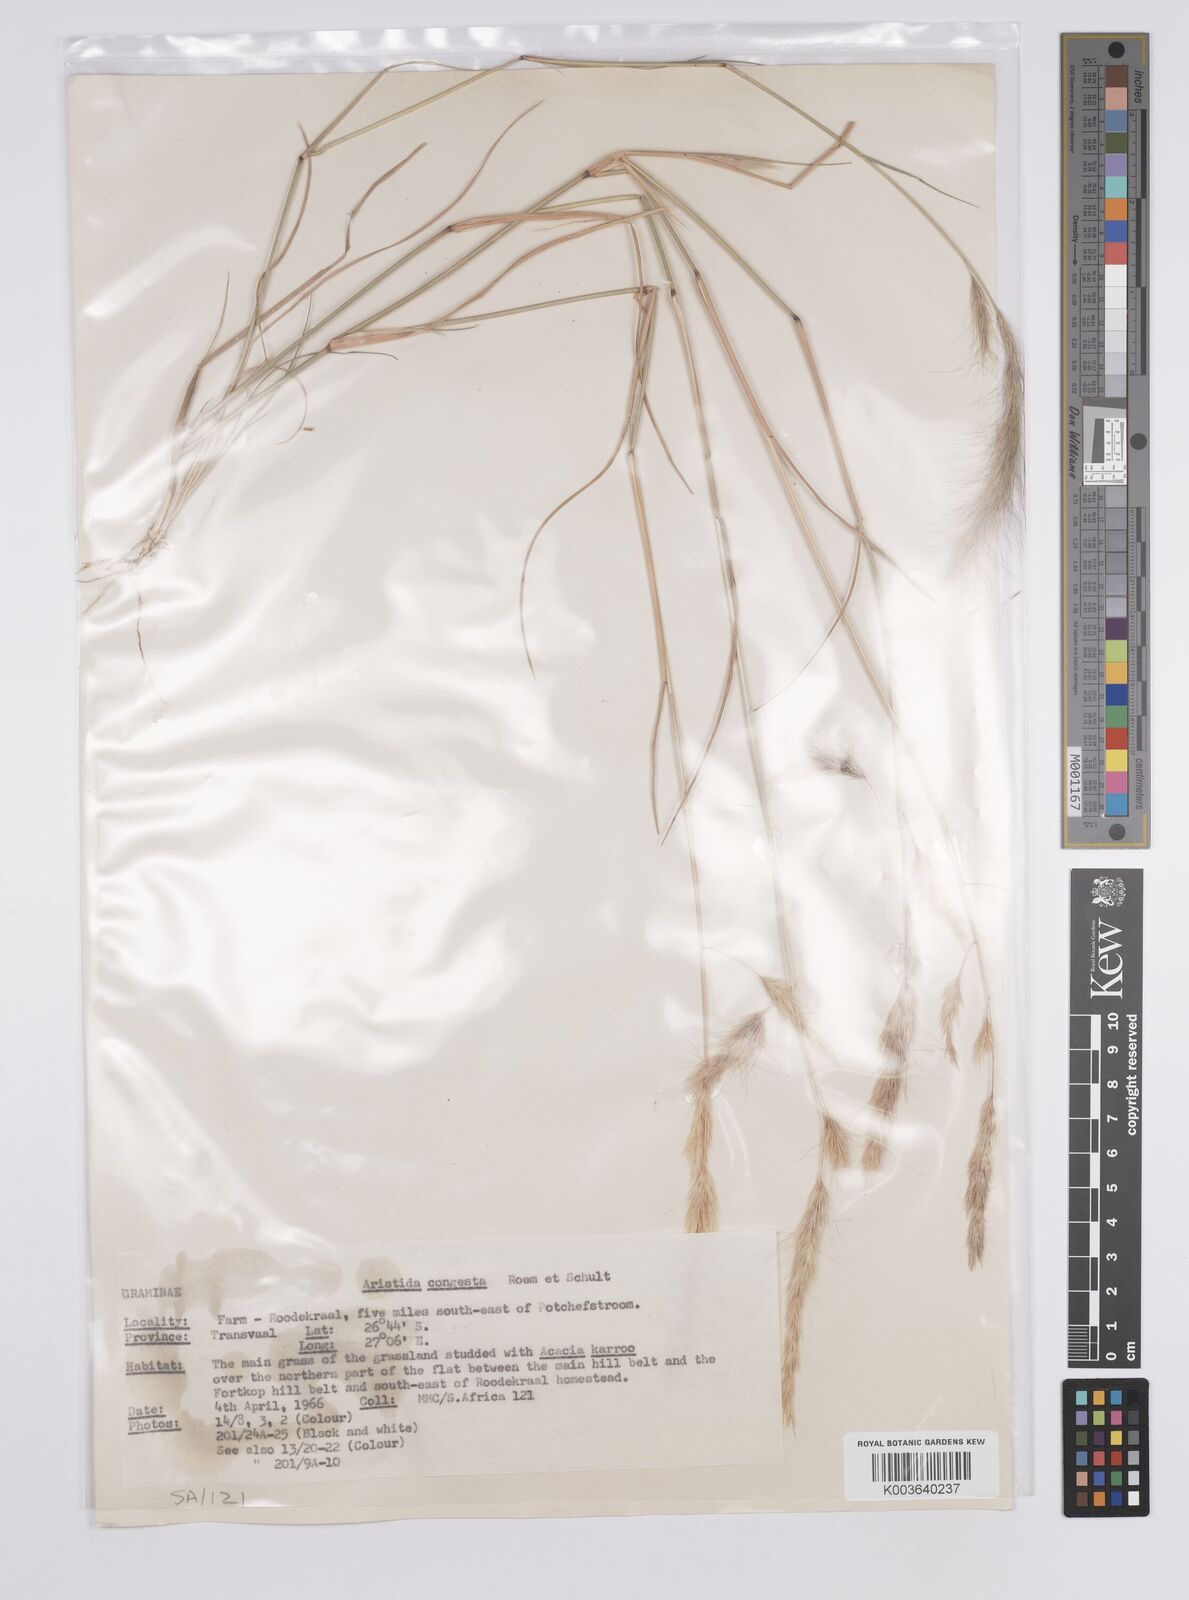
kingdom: Plantae
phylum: Tracheophyta
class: Liliopsida
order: Poales
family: Poaceae
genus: Aristida
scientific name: Aristida congesta
